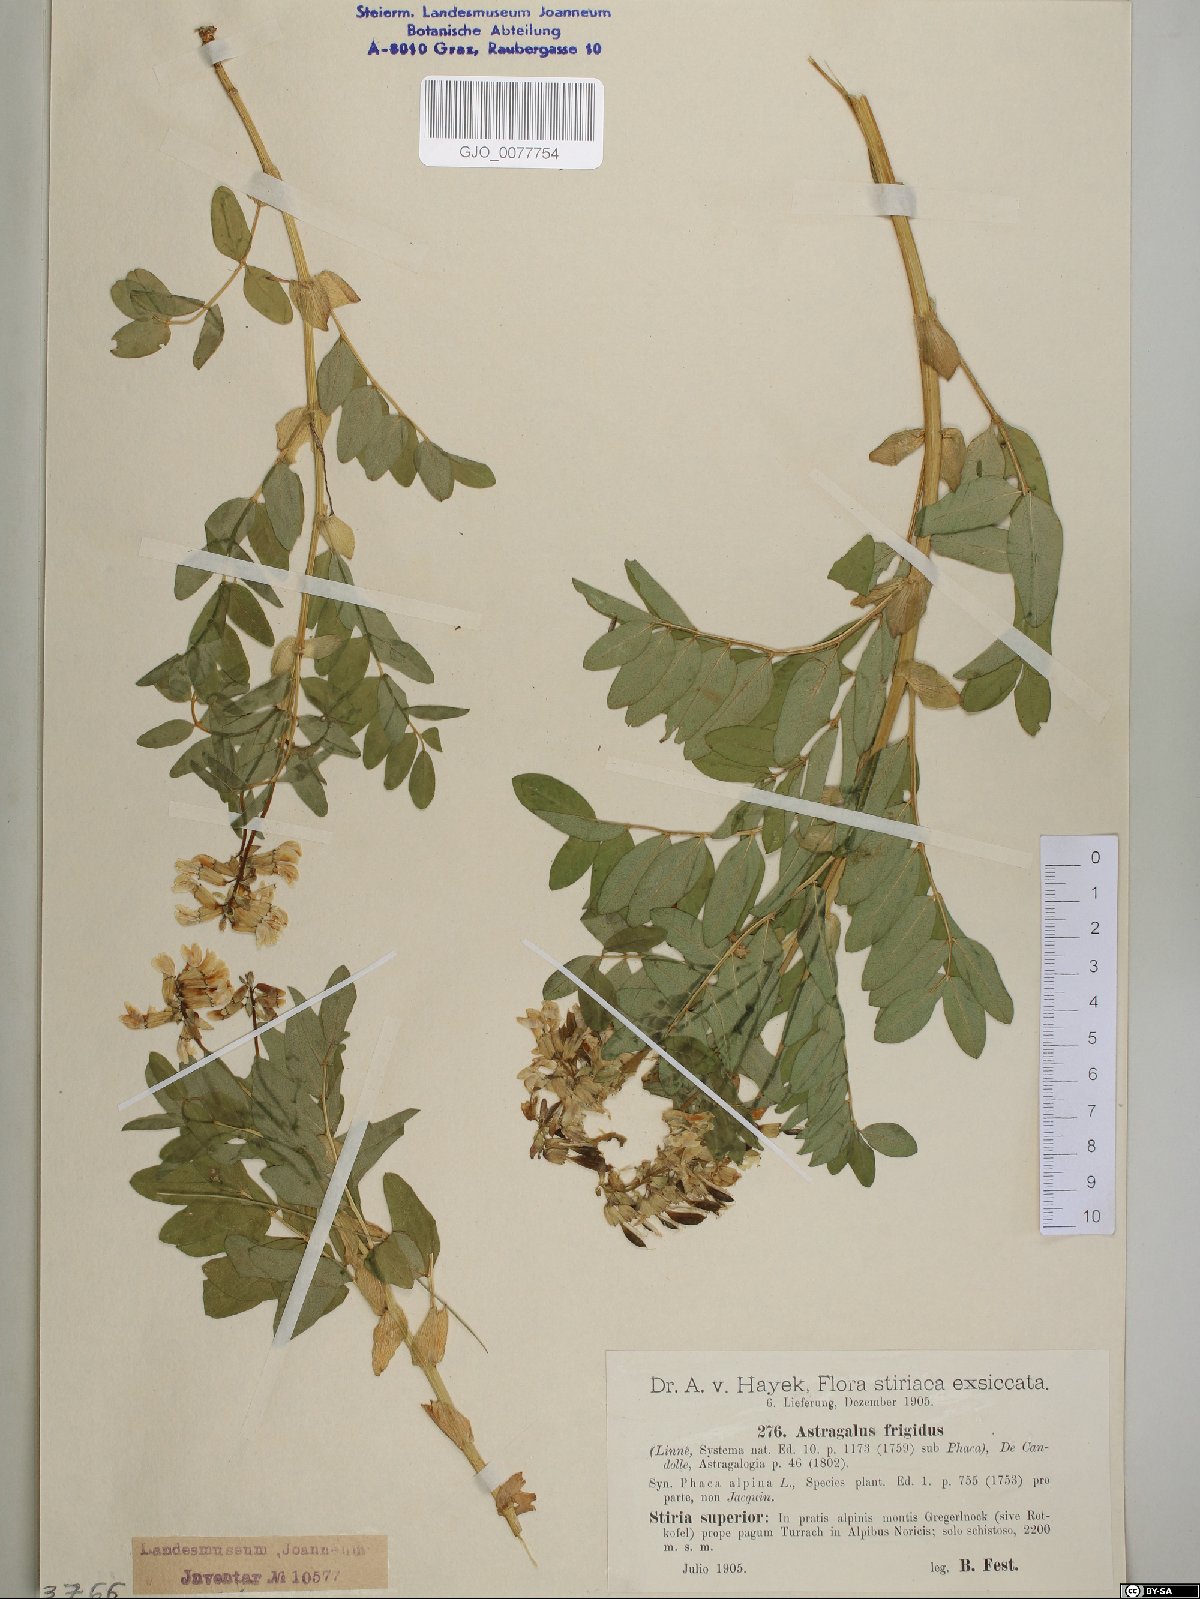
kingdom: Plantae
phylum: Tracheophyta
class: Magnoliopsida
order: Fabales
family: Fabaceae
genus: Astragalus
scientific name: Astragalus frigidus
